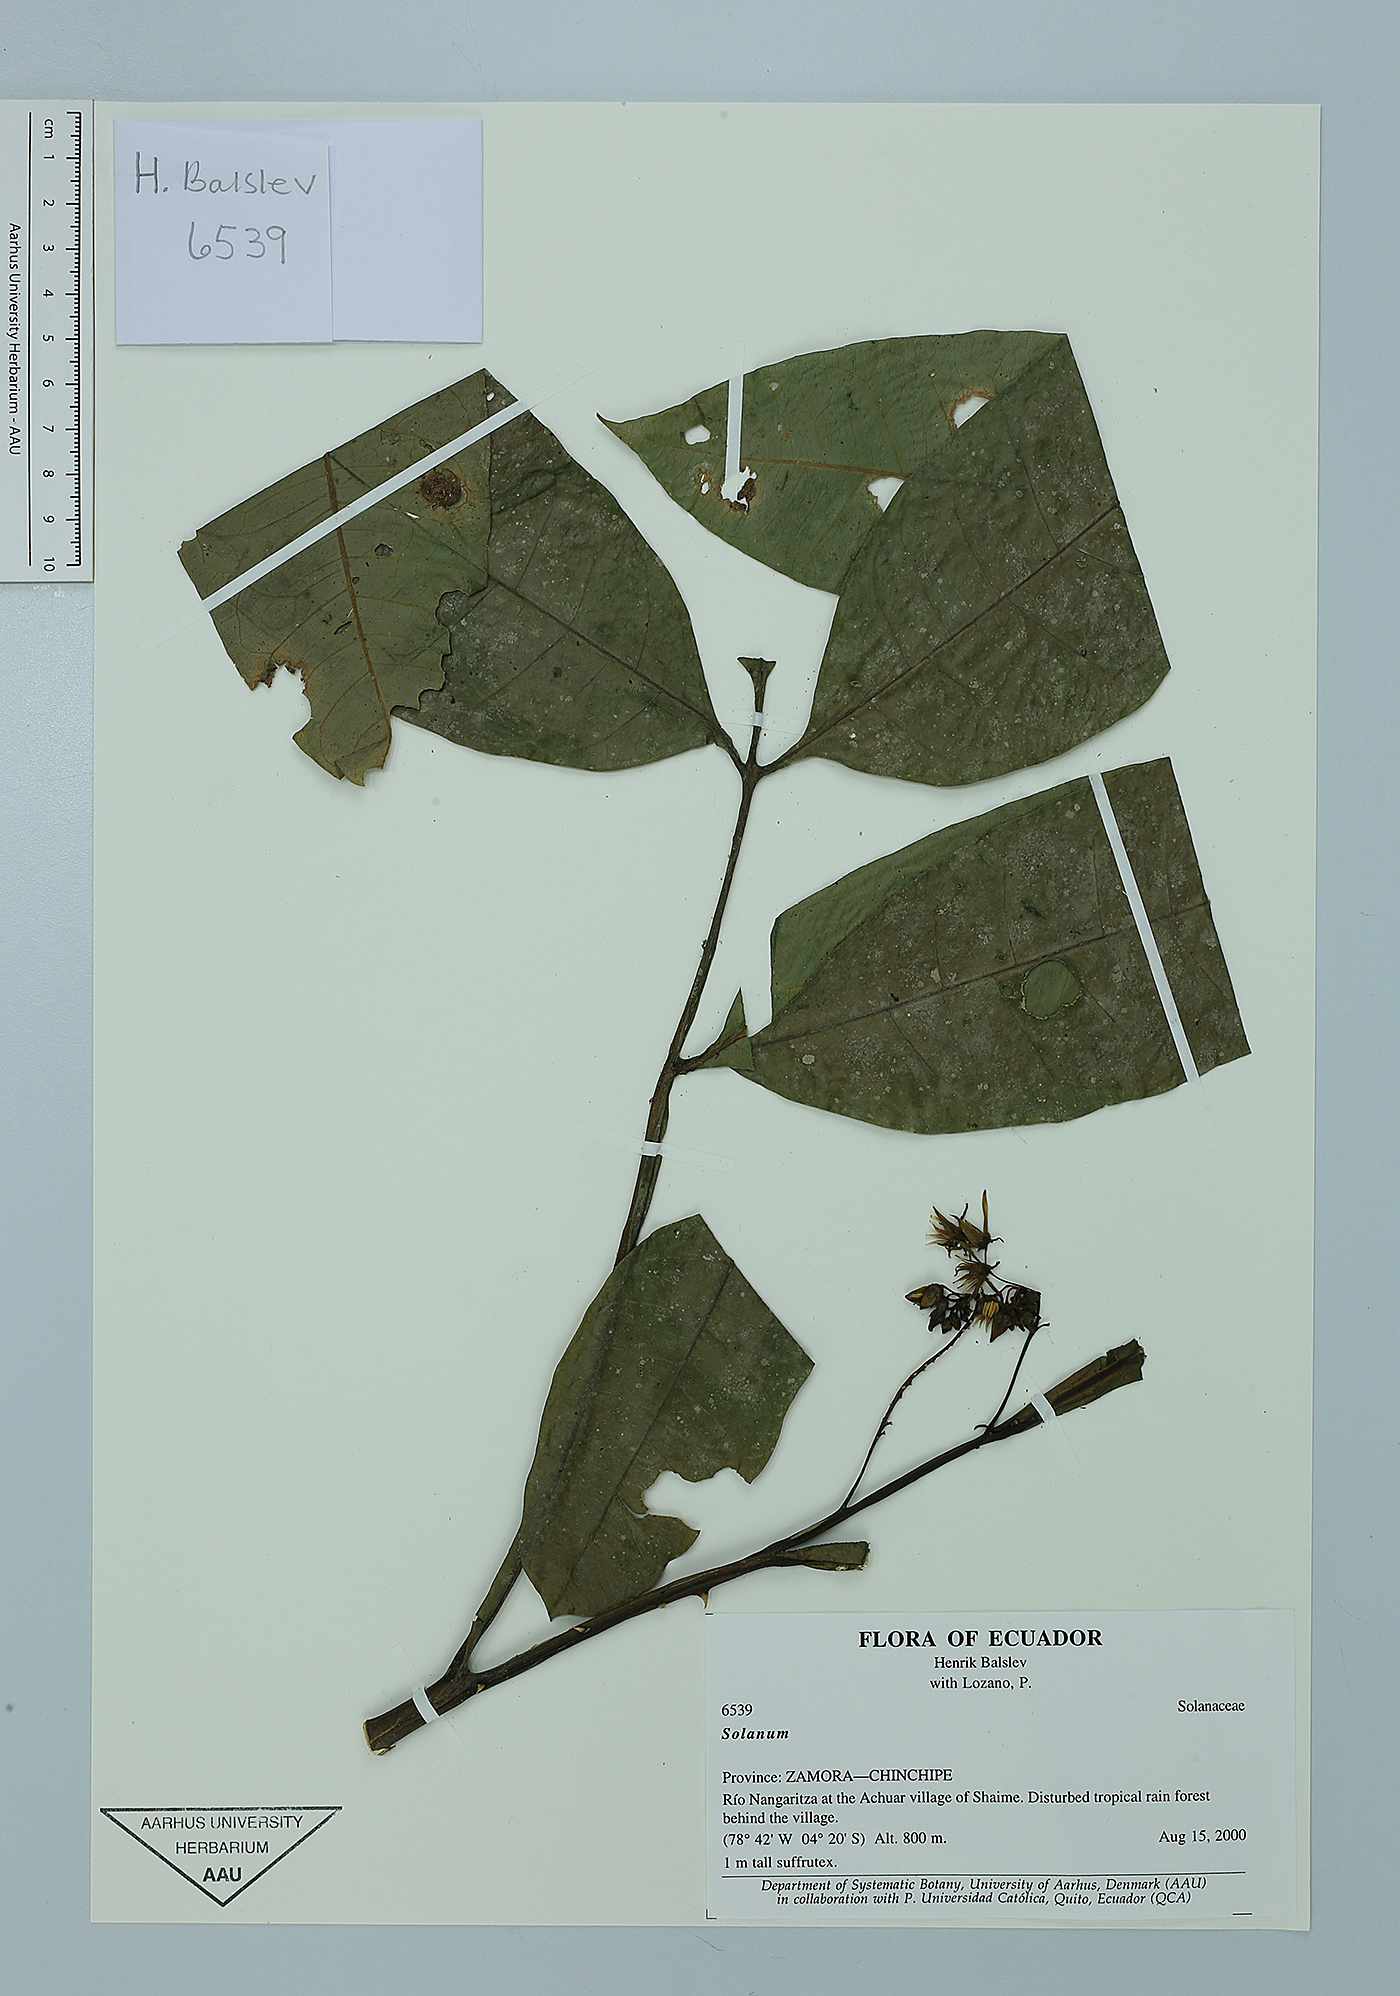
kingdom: Plantae
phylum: Tracheophyta
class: Magnoliopsida
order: Solanales
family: Solanaceae
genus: Solanum
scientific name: Solanum thelopodium
